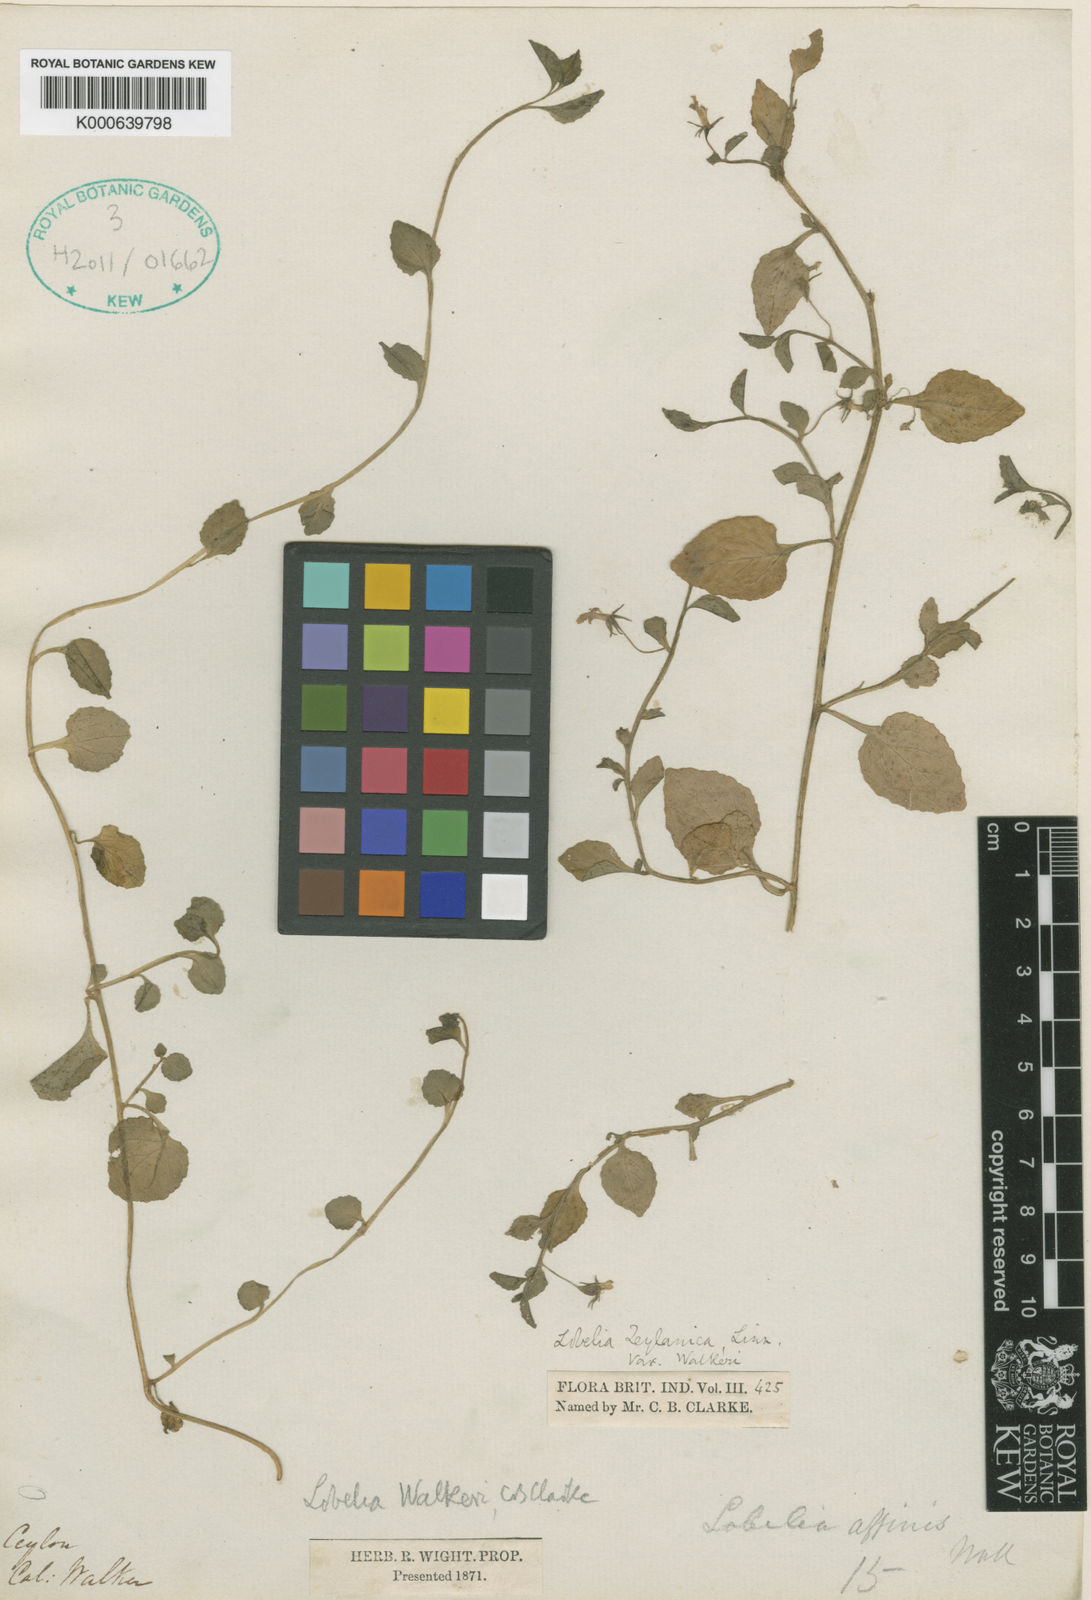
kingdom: Plantae
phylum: Tracheophyta
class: Magnoliopsida
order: Asterales
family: Campanulaceae
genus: Lobelia
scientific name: Lobelia walkeri
